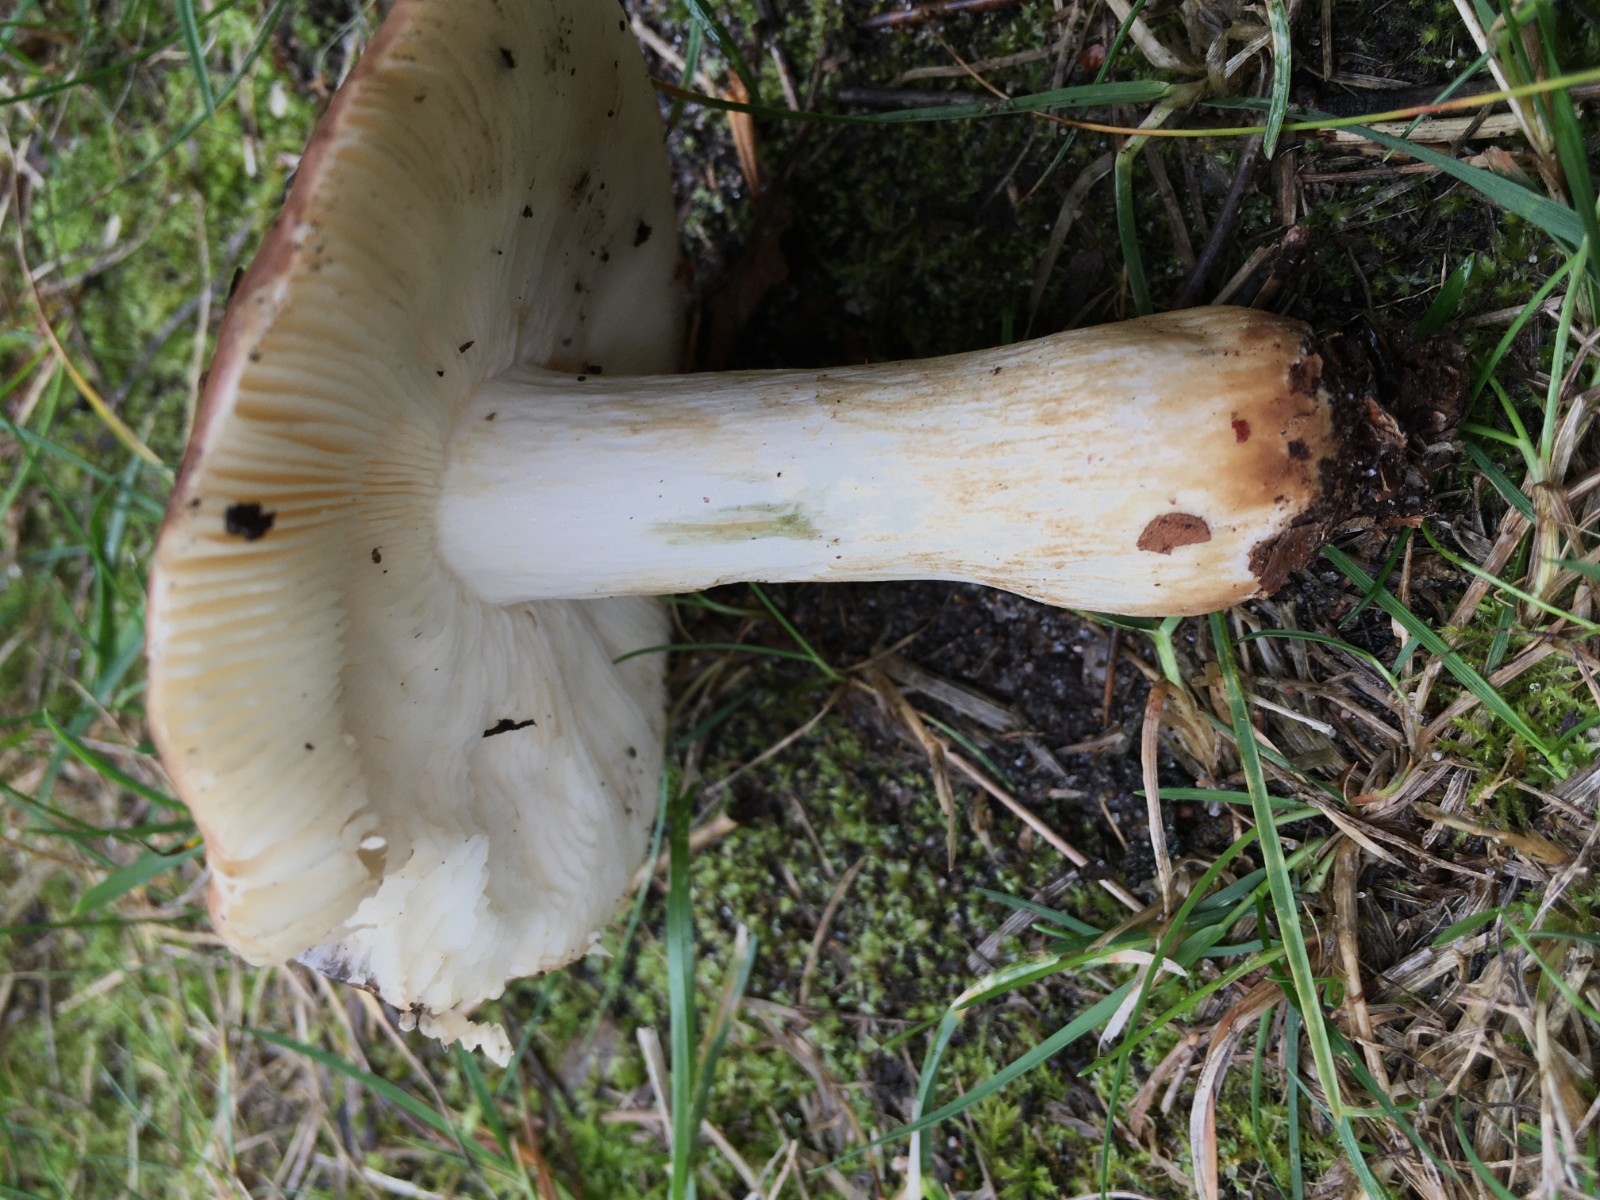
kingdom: Fungi
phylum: Basidiomycota
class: Agaricomycetes
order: Russulales
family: Russulaceae
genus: Russula
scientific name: Russula faginea
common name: bøge-skørhat
